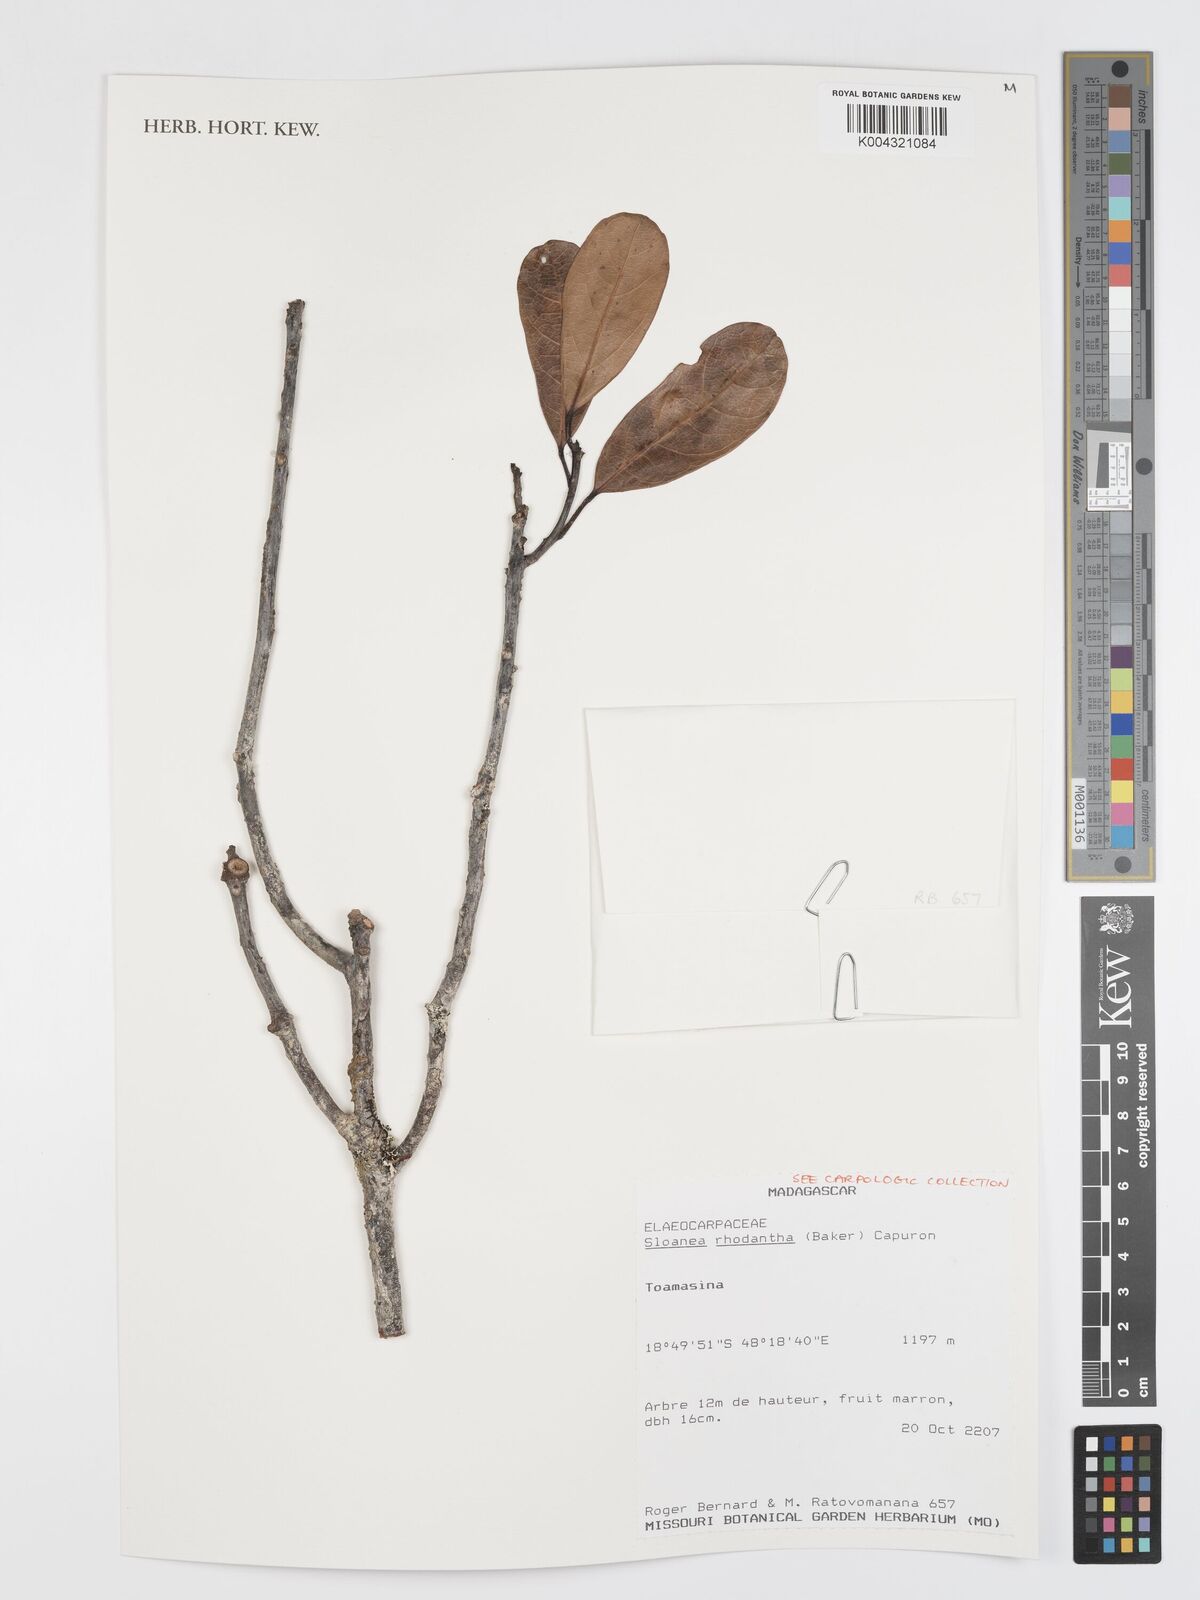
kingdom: Plantae
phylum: Tracheophyta
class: Magnoliopsida
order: Oxalidales
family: Elaeocarpaceae
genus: Sloanea
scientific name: Sloanea rhodantha
